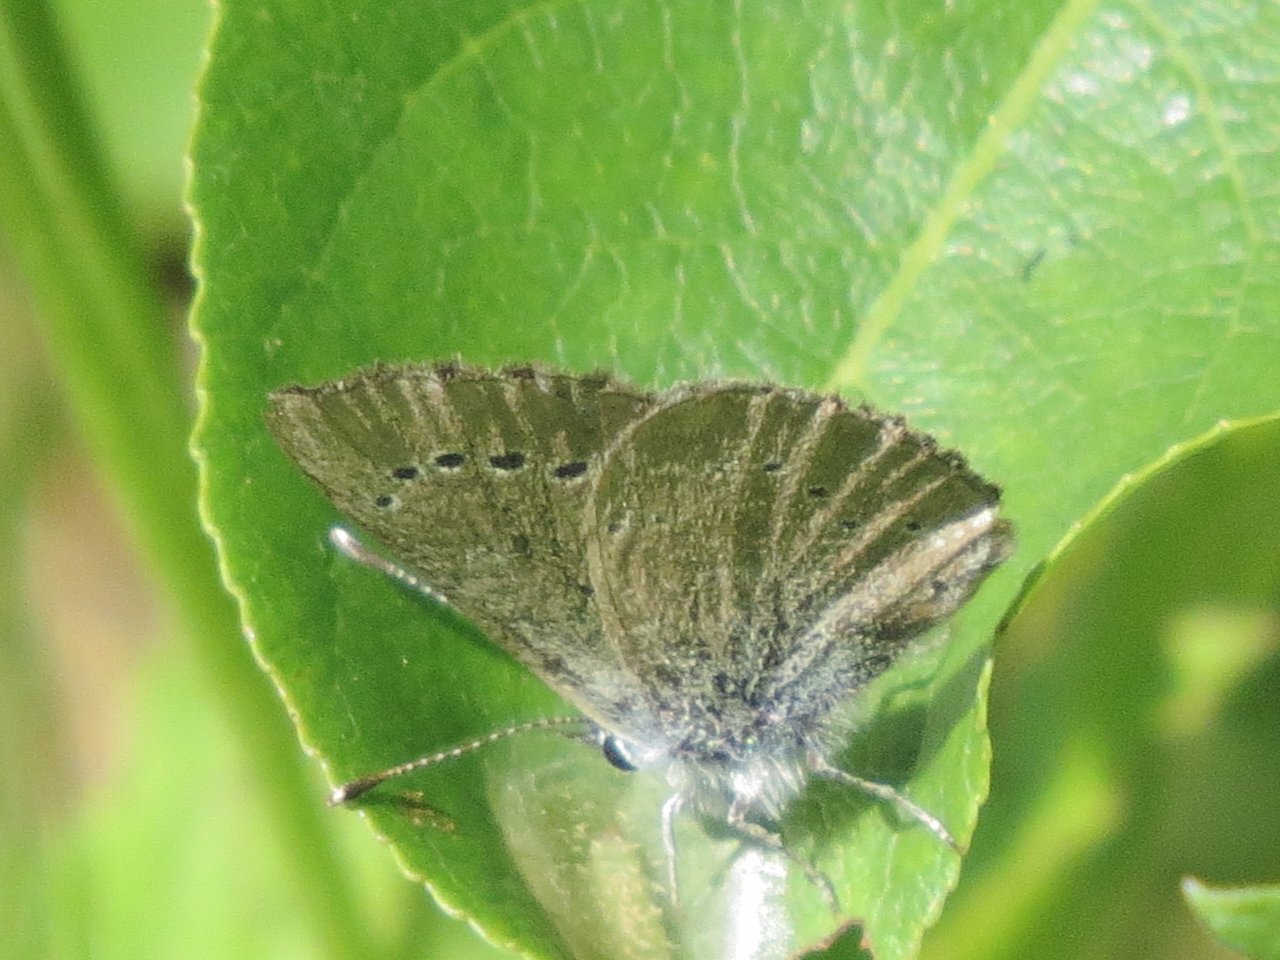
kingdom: Animalia
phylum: Arthropoda
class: Insecta
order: Lepidoptera
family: Lycaenidae
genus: Plebejus
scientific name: Plebejus saepiolus
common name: Greenish Blue
